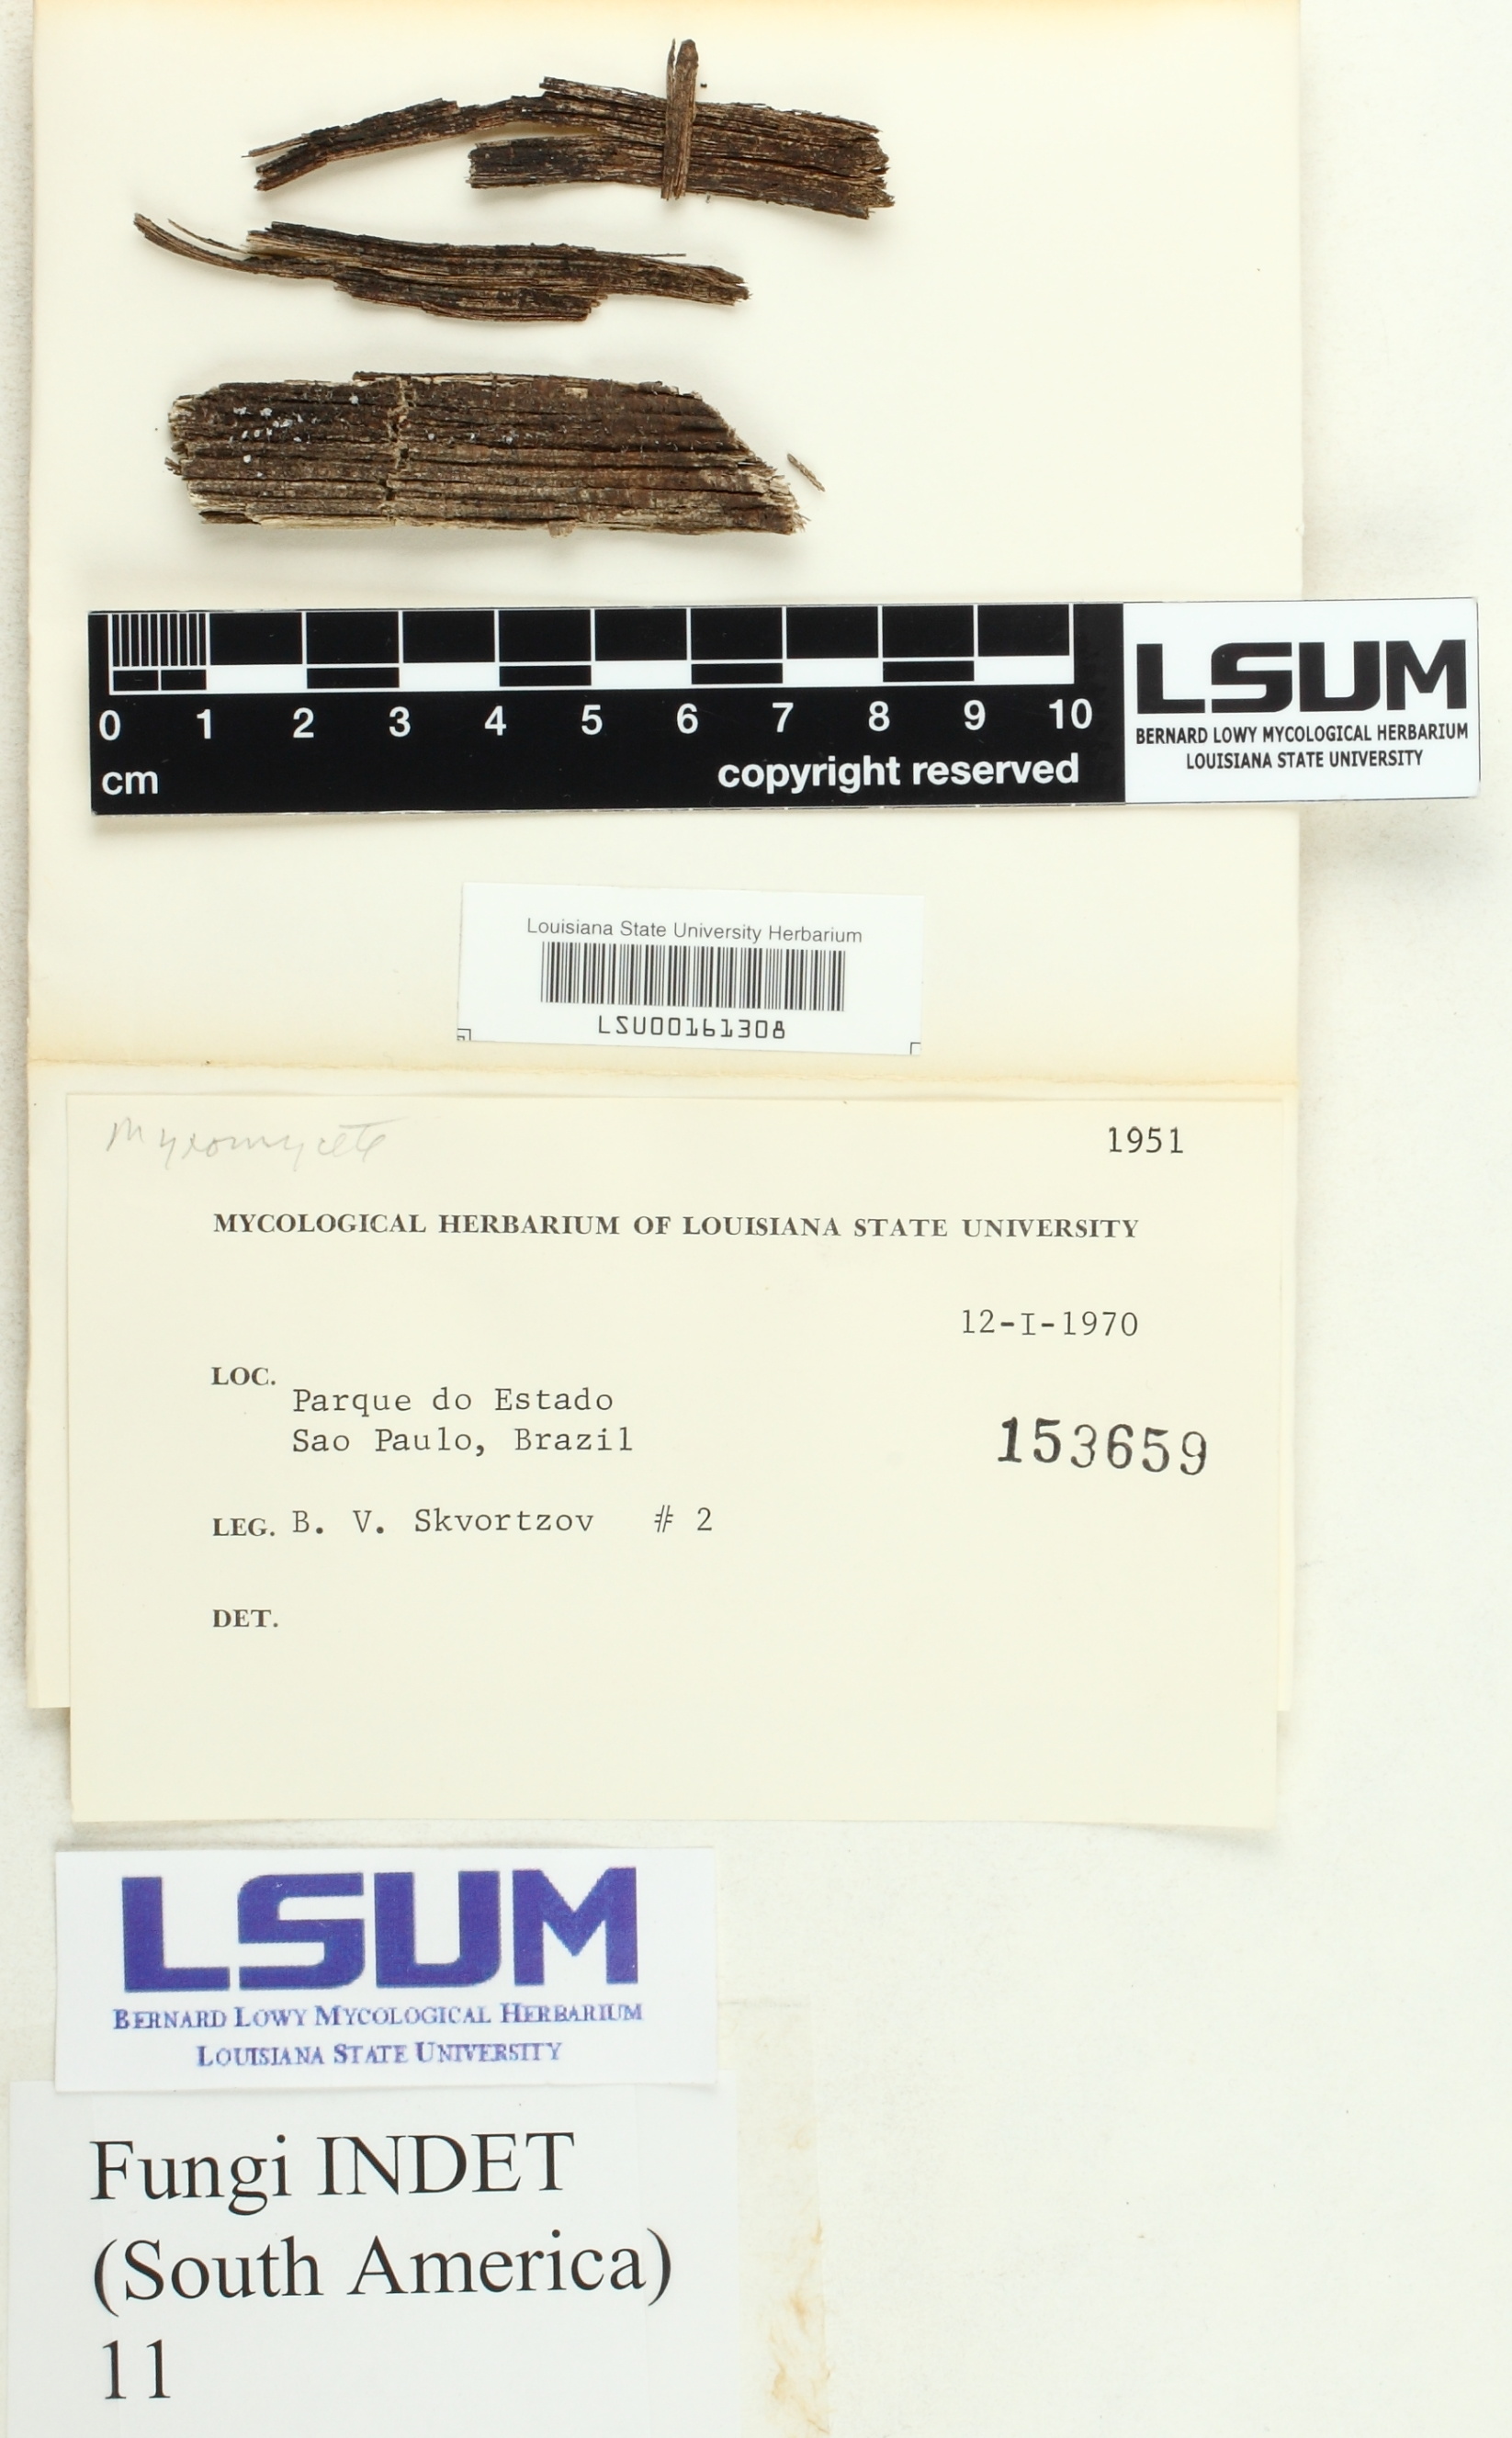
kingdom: Fungi
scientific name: Fungi
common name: Fungi
